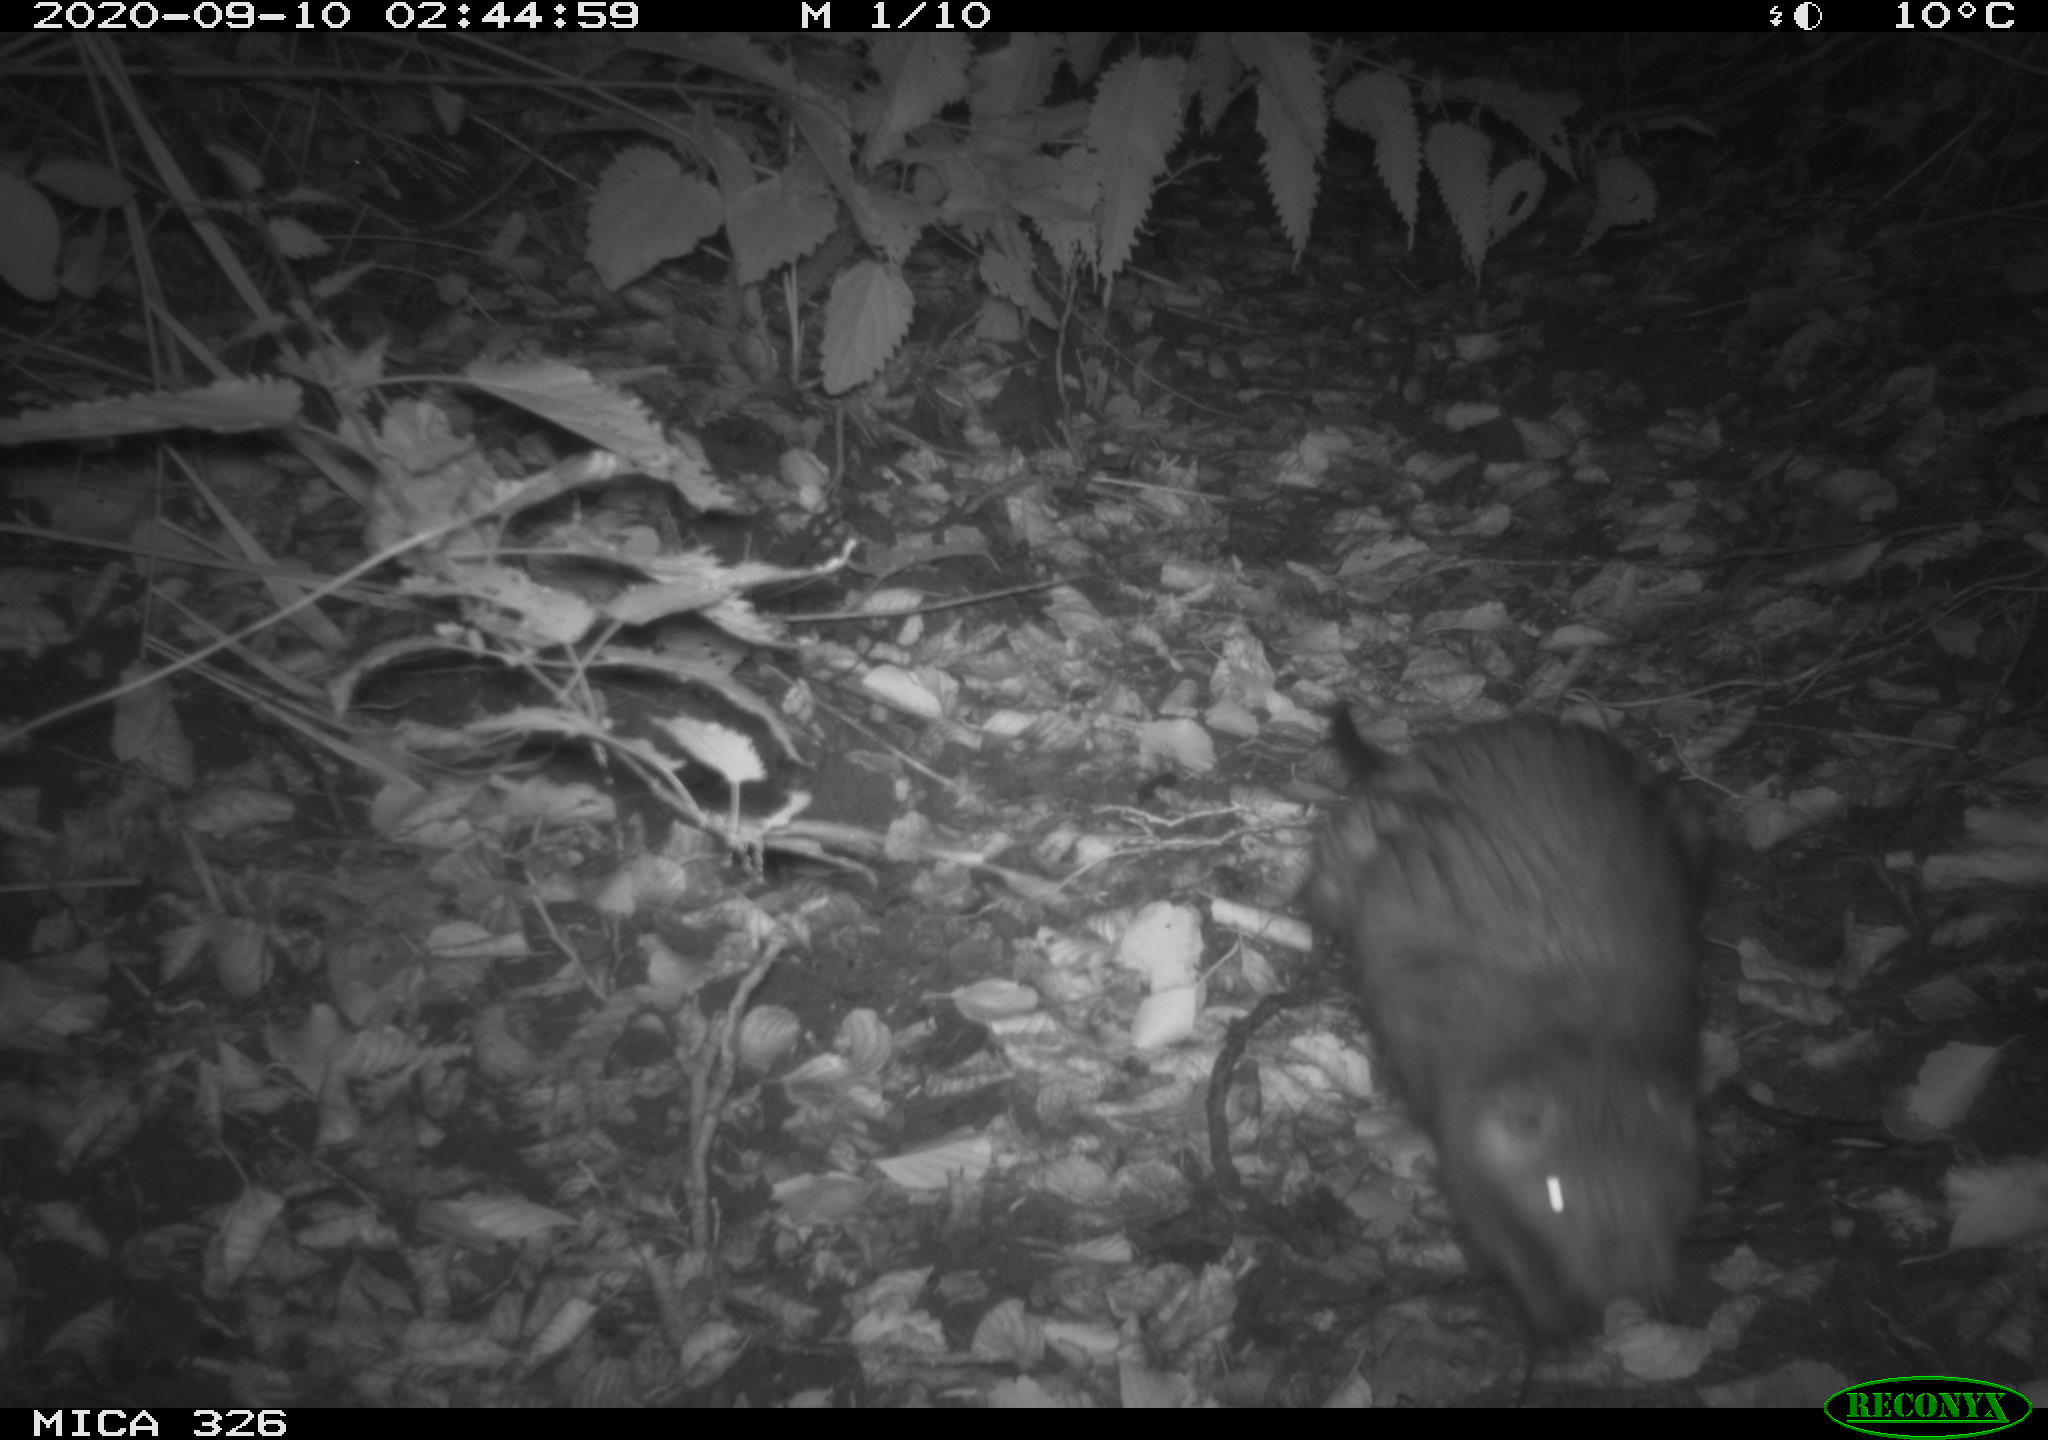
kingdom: Animalia
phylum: Chordata
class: Mammalia
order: Carnivora
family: Mustelidae
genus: Lutra
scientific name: Lutra lutra
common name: European otter
